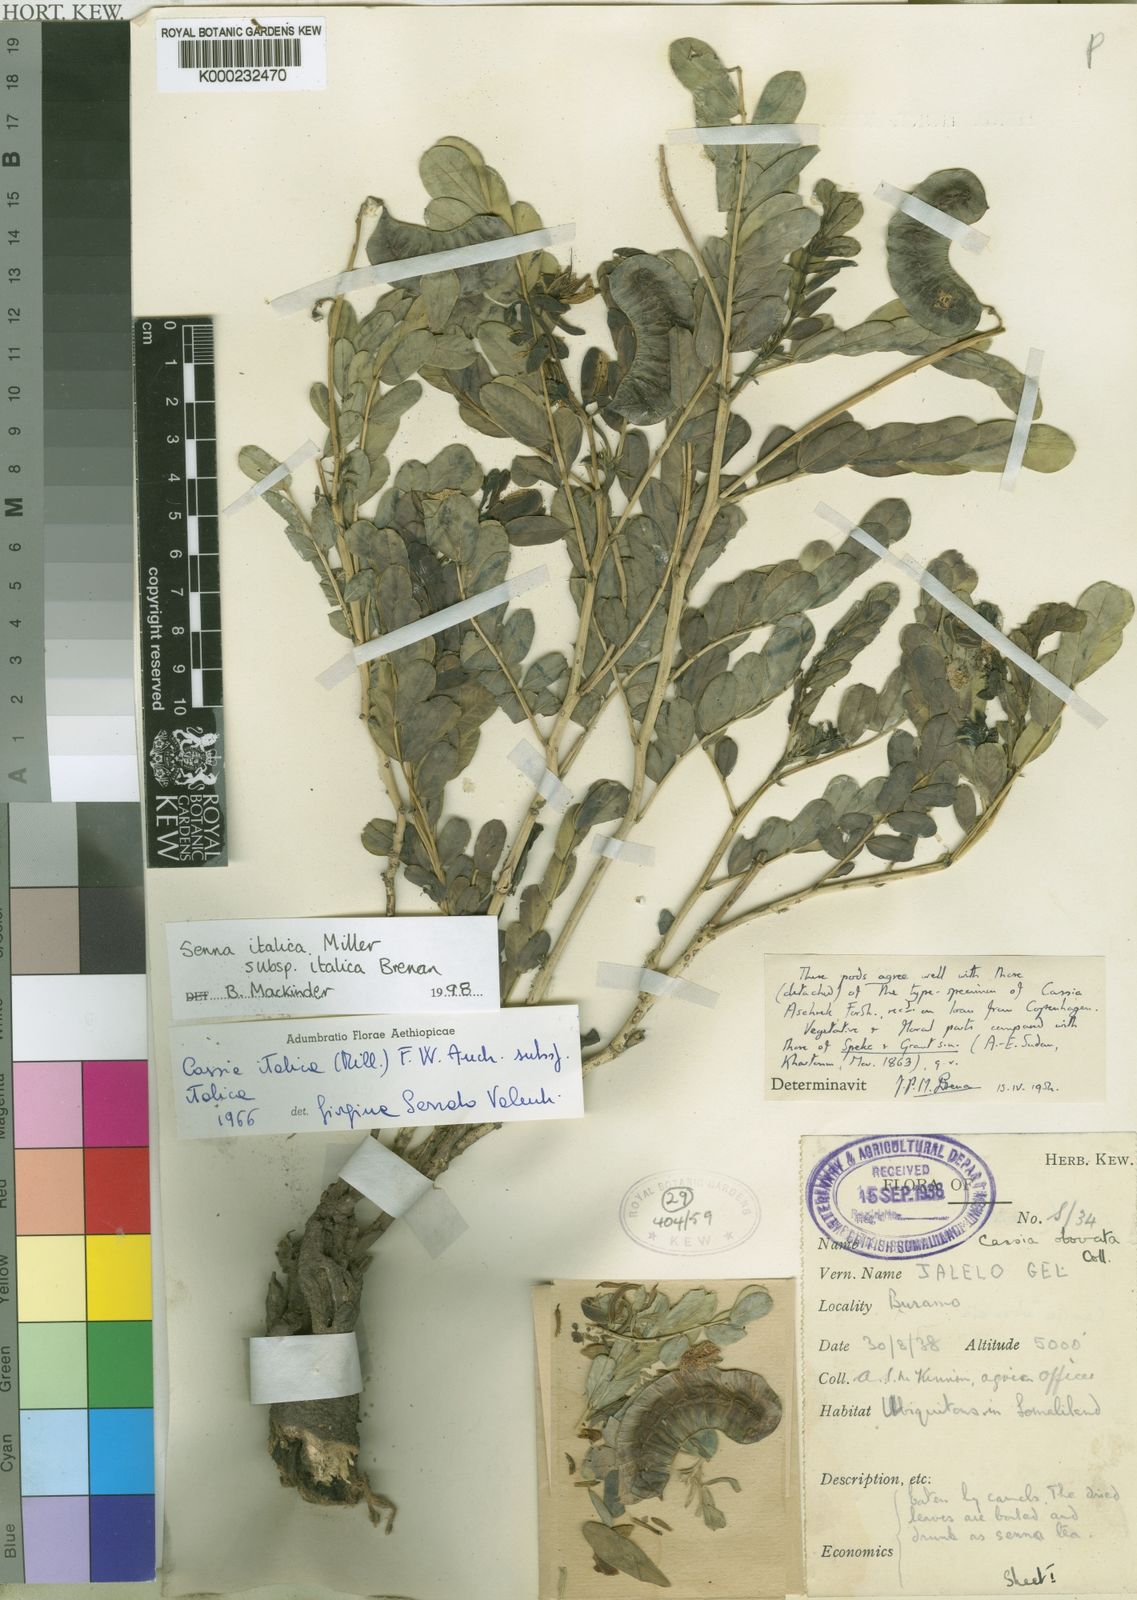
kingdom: Plantae
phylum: Tracheophyta
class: Magnoliopsida
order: Fabales
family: Fabaceae
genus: Senna
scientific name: Senna italica
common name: Port royal senna
